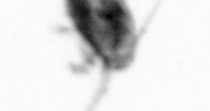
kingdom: Animalia
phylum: Arthropoda
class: Copepoda
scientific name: Copepoda
